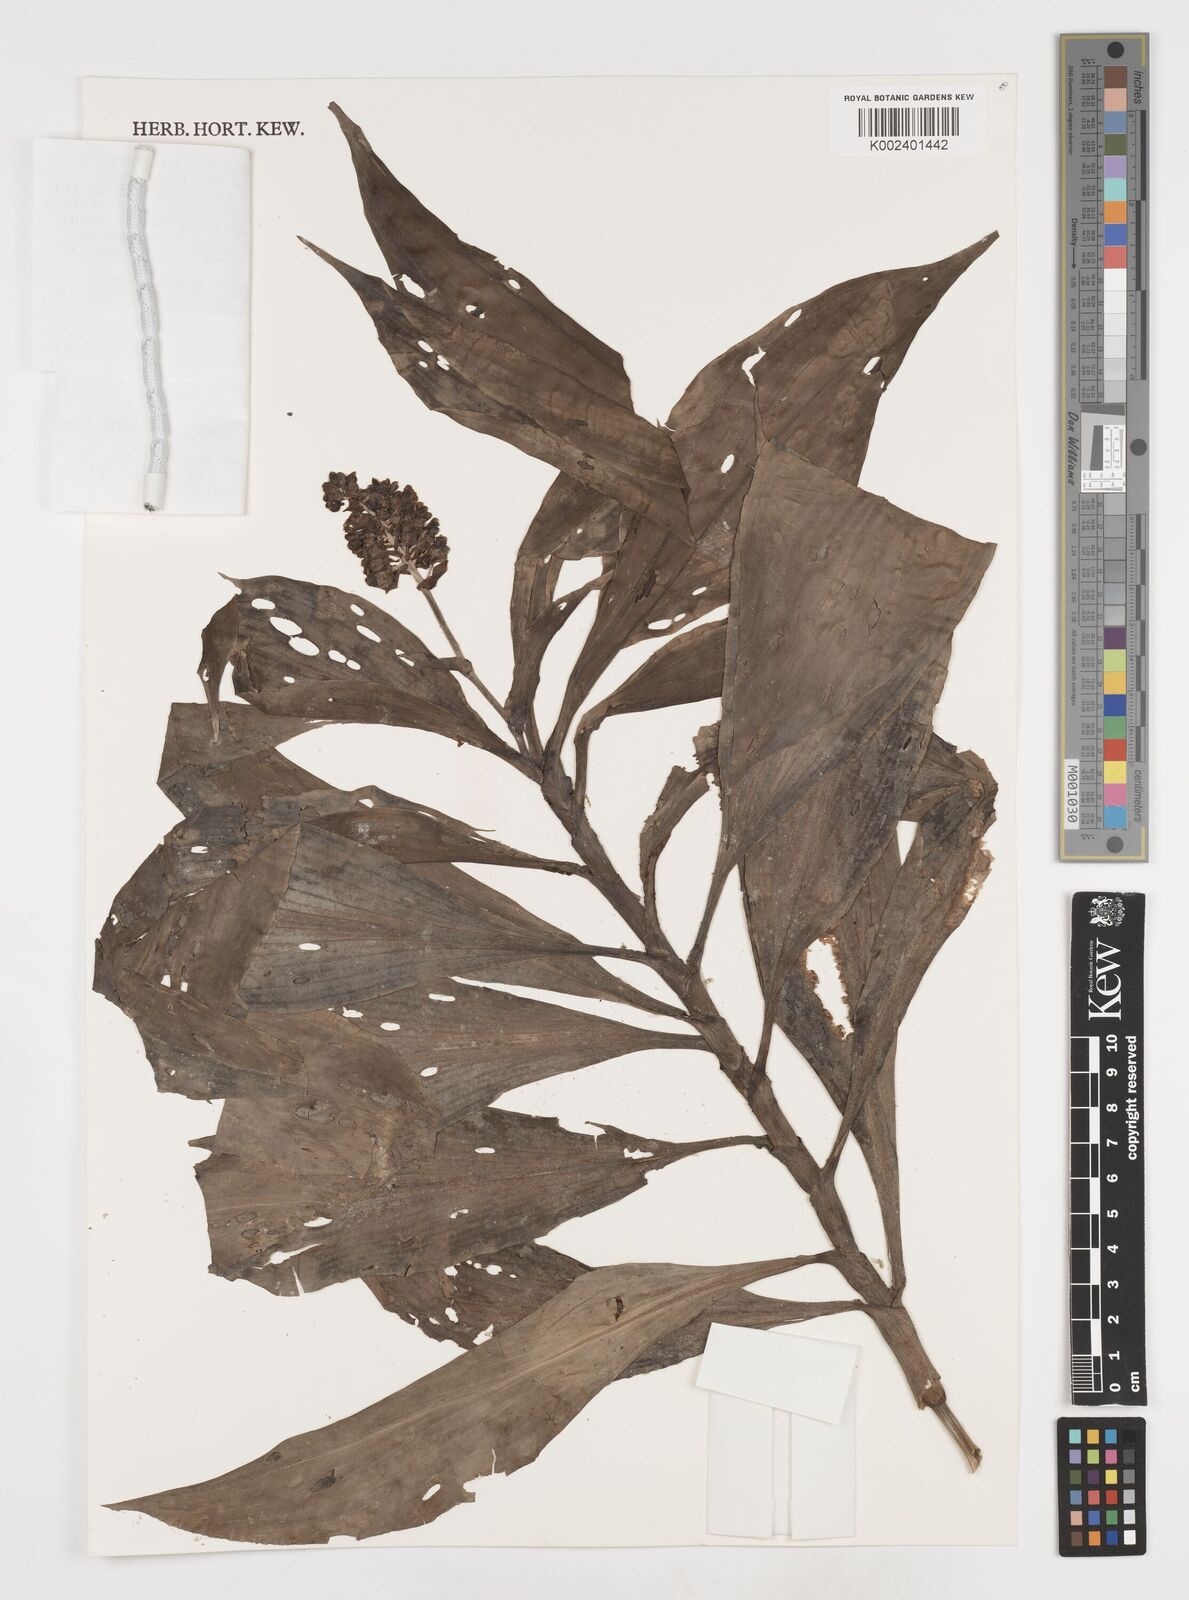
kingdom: Plantae
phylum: Tracheophyta
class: Liliopsida
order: Commelinales
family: Commelinaceae
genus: Pollia
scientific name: Pollia thyrsiflora
